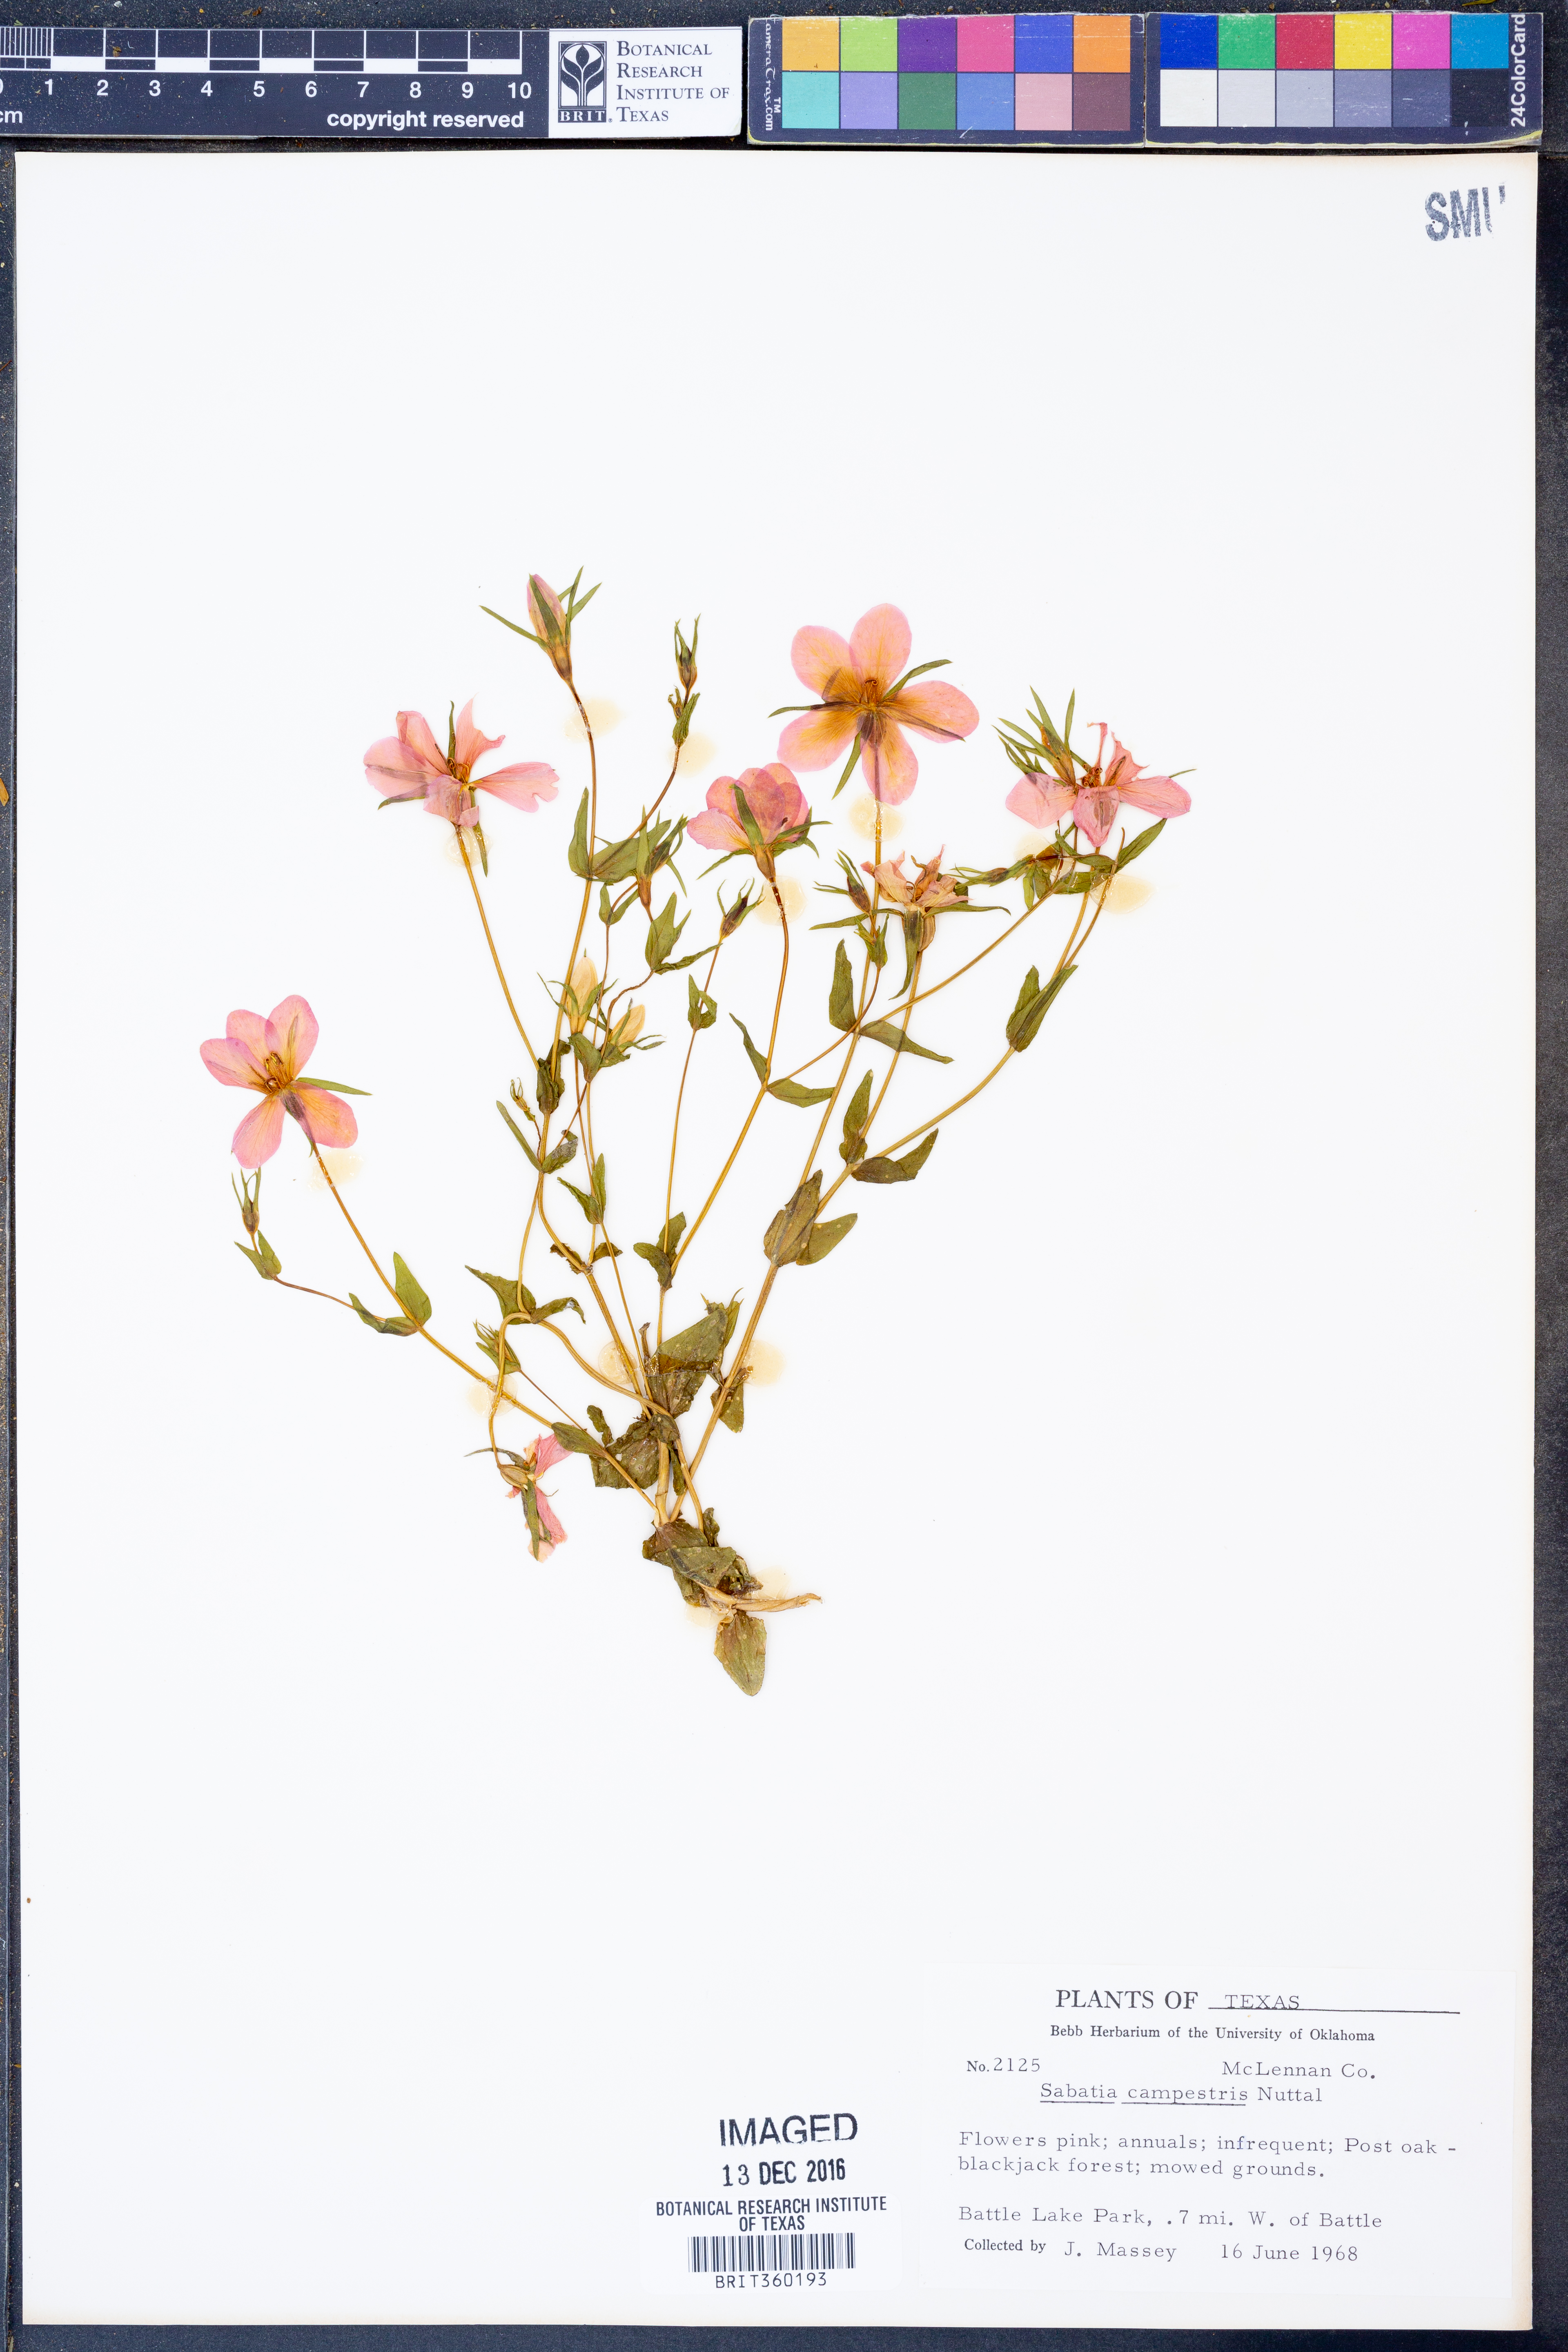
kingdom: Plantae
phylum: Tracheophyta
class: Magnoliopsida
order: Gentianales
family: Gentianaceae
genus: Sabatia
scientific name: Sabatia campestris
